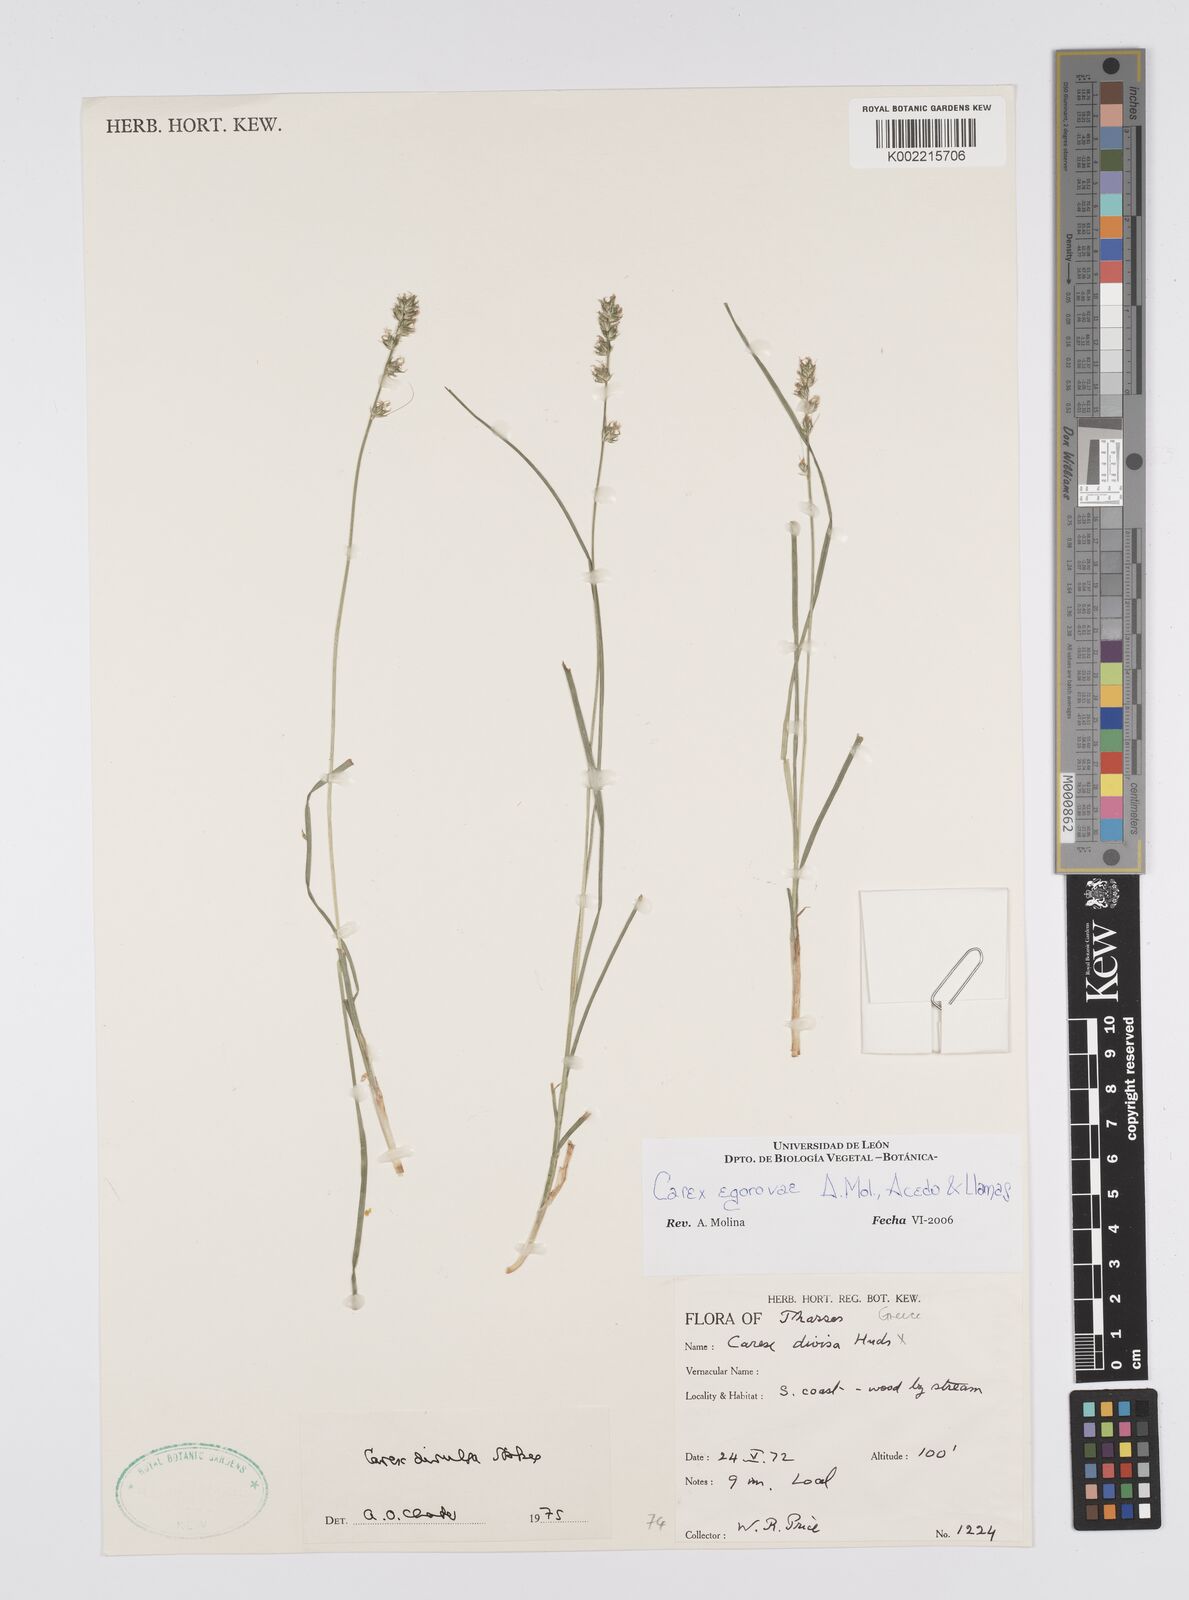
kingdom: Plantae
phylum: Tracheophyta
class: Liliopsida
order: Poales
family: Cyperaceae
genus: Carex
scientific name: Carex egorovae
